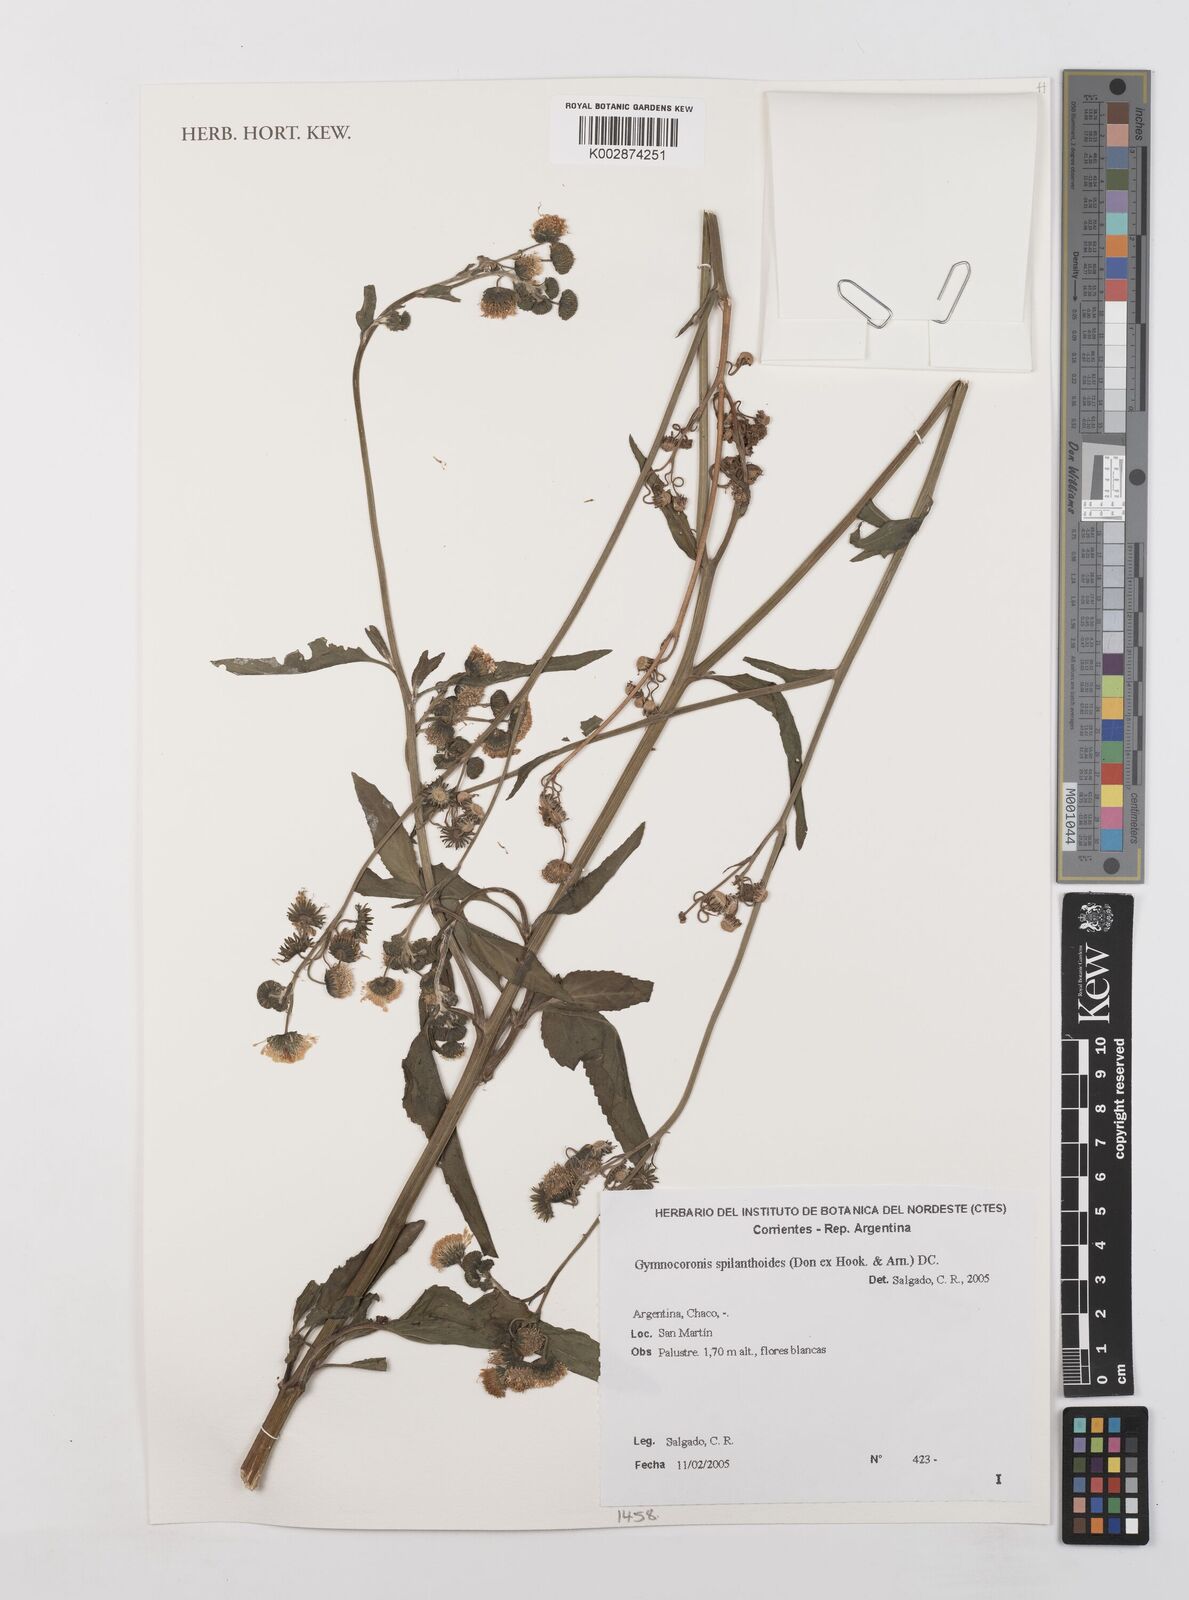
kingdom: Plantae
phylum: Tracheophyta
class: Magnoliopsida
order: Asterales
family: Asteraceae
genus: Gymnocoronis
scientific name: Gymnocoronis spilanthoides
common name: Senegal teaplant
